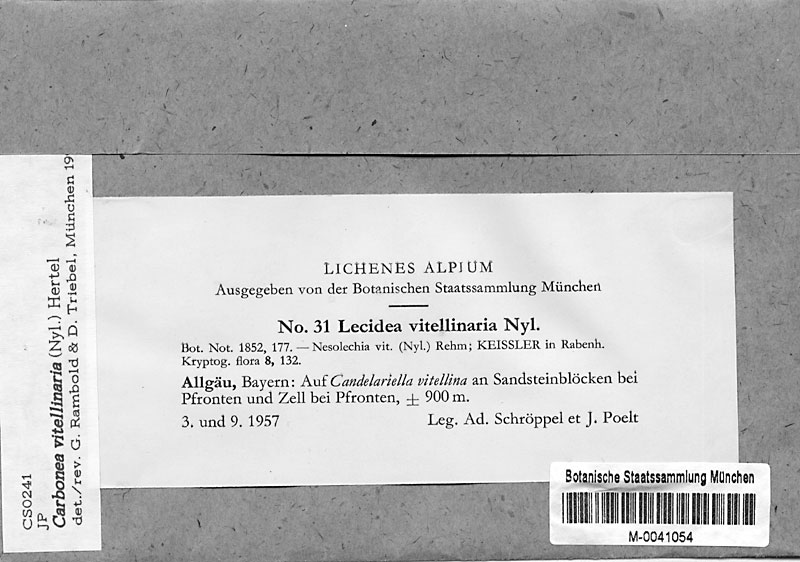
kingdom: Fungi
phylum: Ascomycota
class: Candelariomycetes
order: Candelariales
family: Candelariaceae
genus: Candelariella
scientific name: Candelariella vitellina
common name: Common goldspeck
